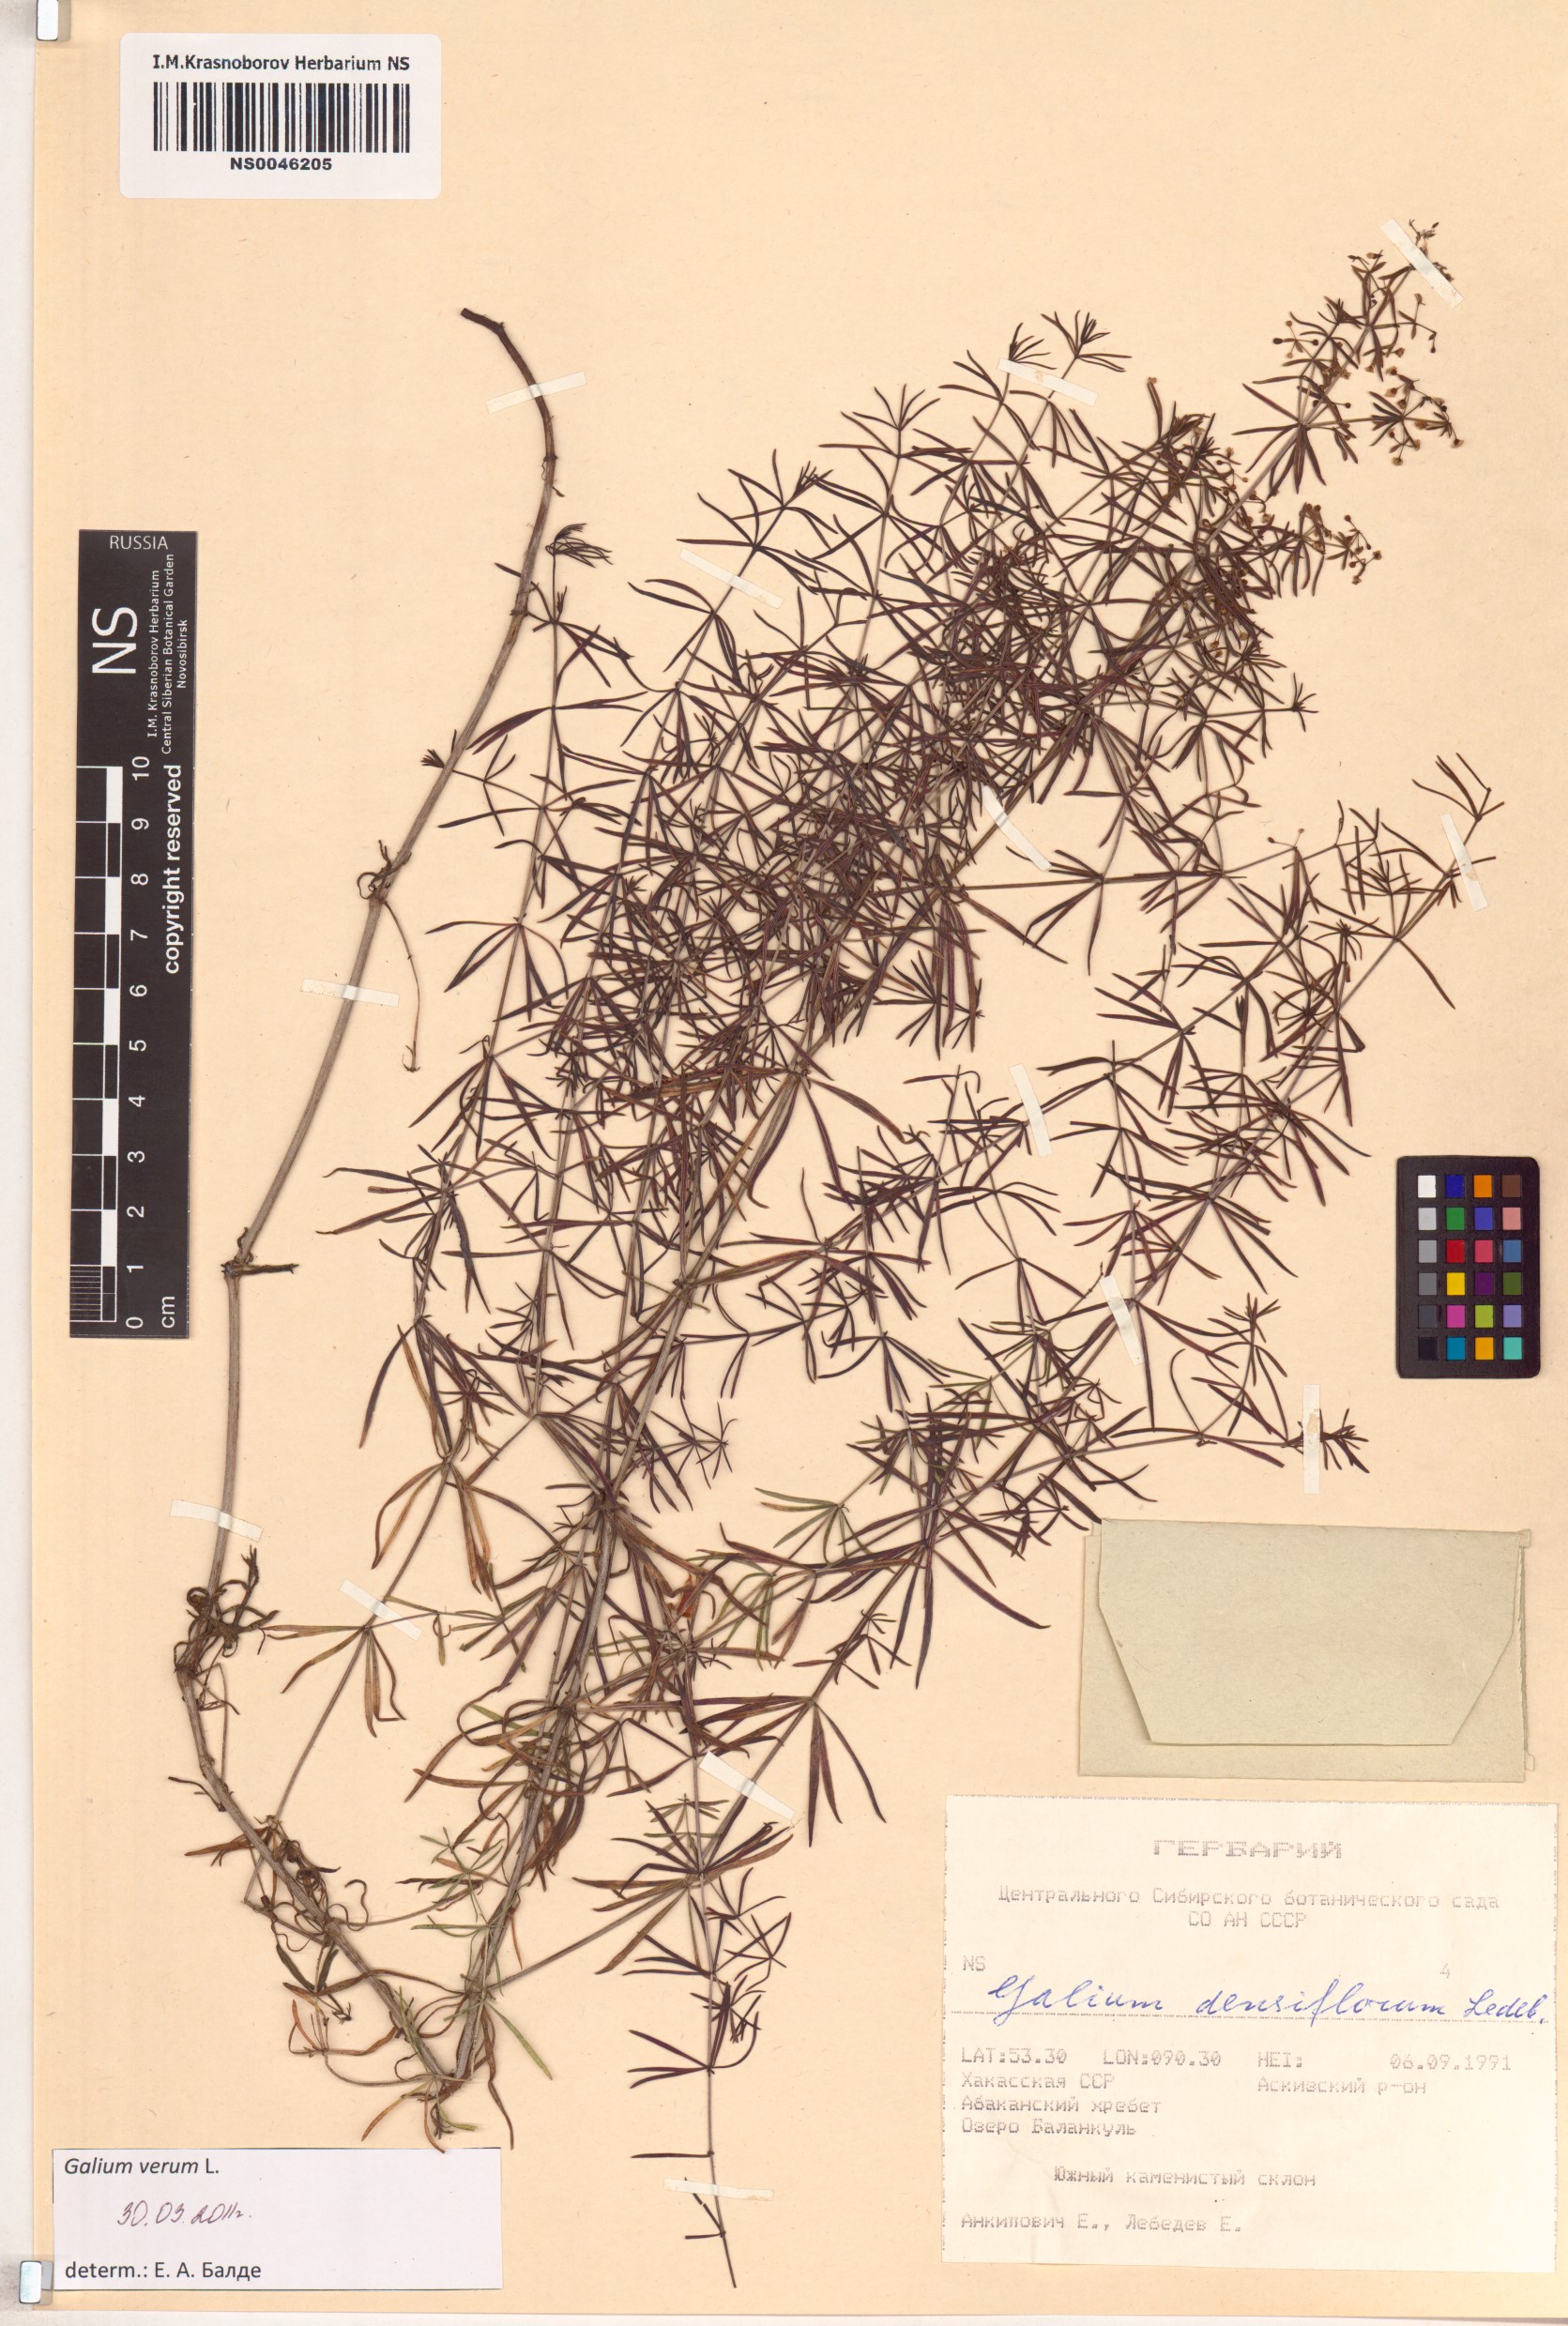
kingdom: Plantae
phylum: Tracheophyta
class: Magnoliopsida
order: Gentianales
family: Rubiaceae
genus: Galium
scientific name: Galium verum
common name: Lady's bedstraw
